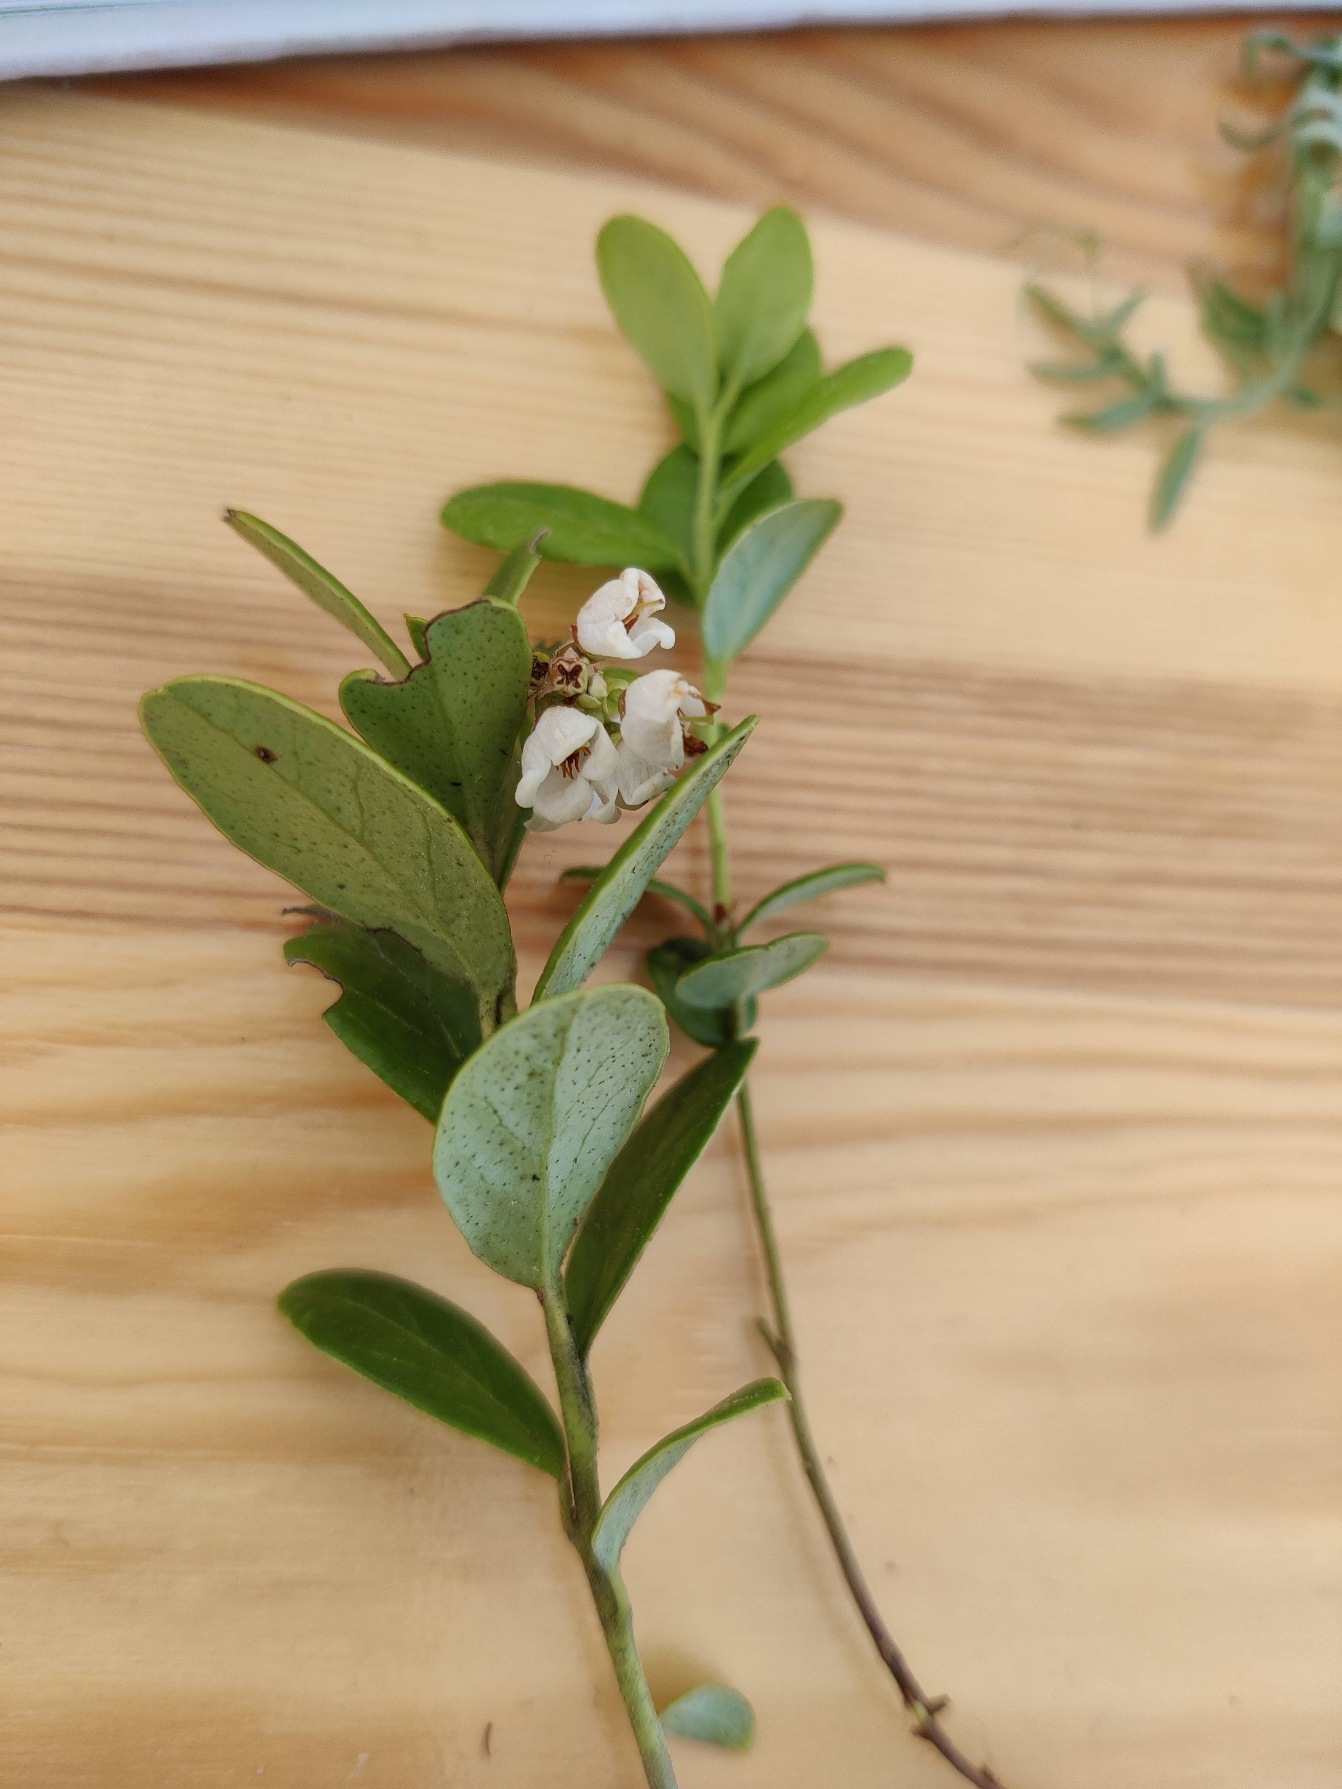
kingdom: Plantae
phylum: Tracheophyta
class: Magnoliopsida
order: Ericales
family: Ericaceae
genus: Vaccinium
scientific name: Vaccinium vitis-idaea
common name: Tyttebær
